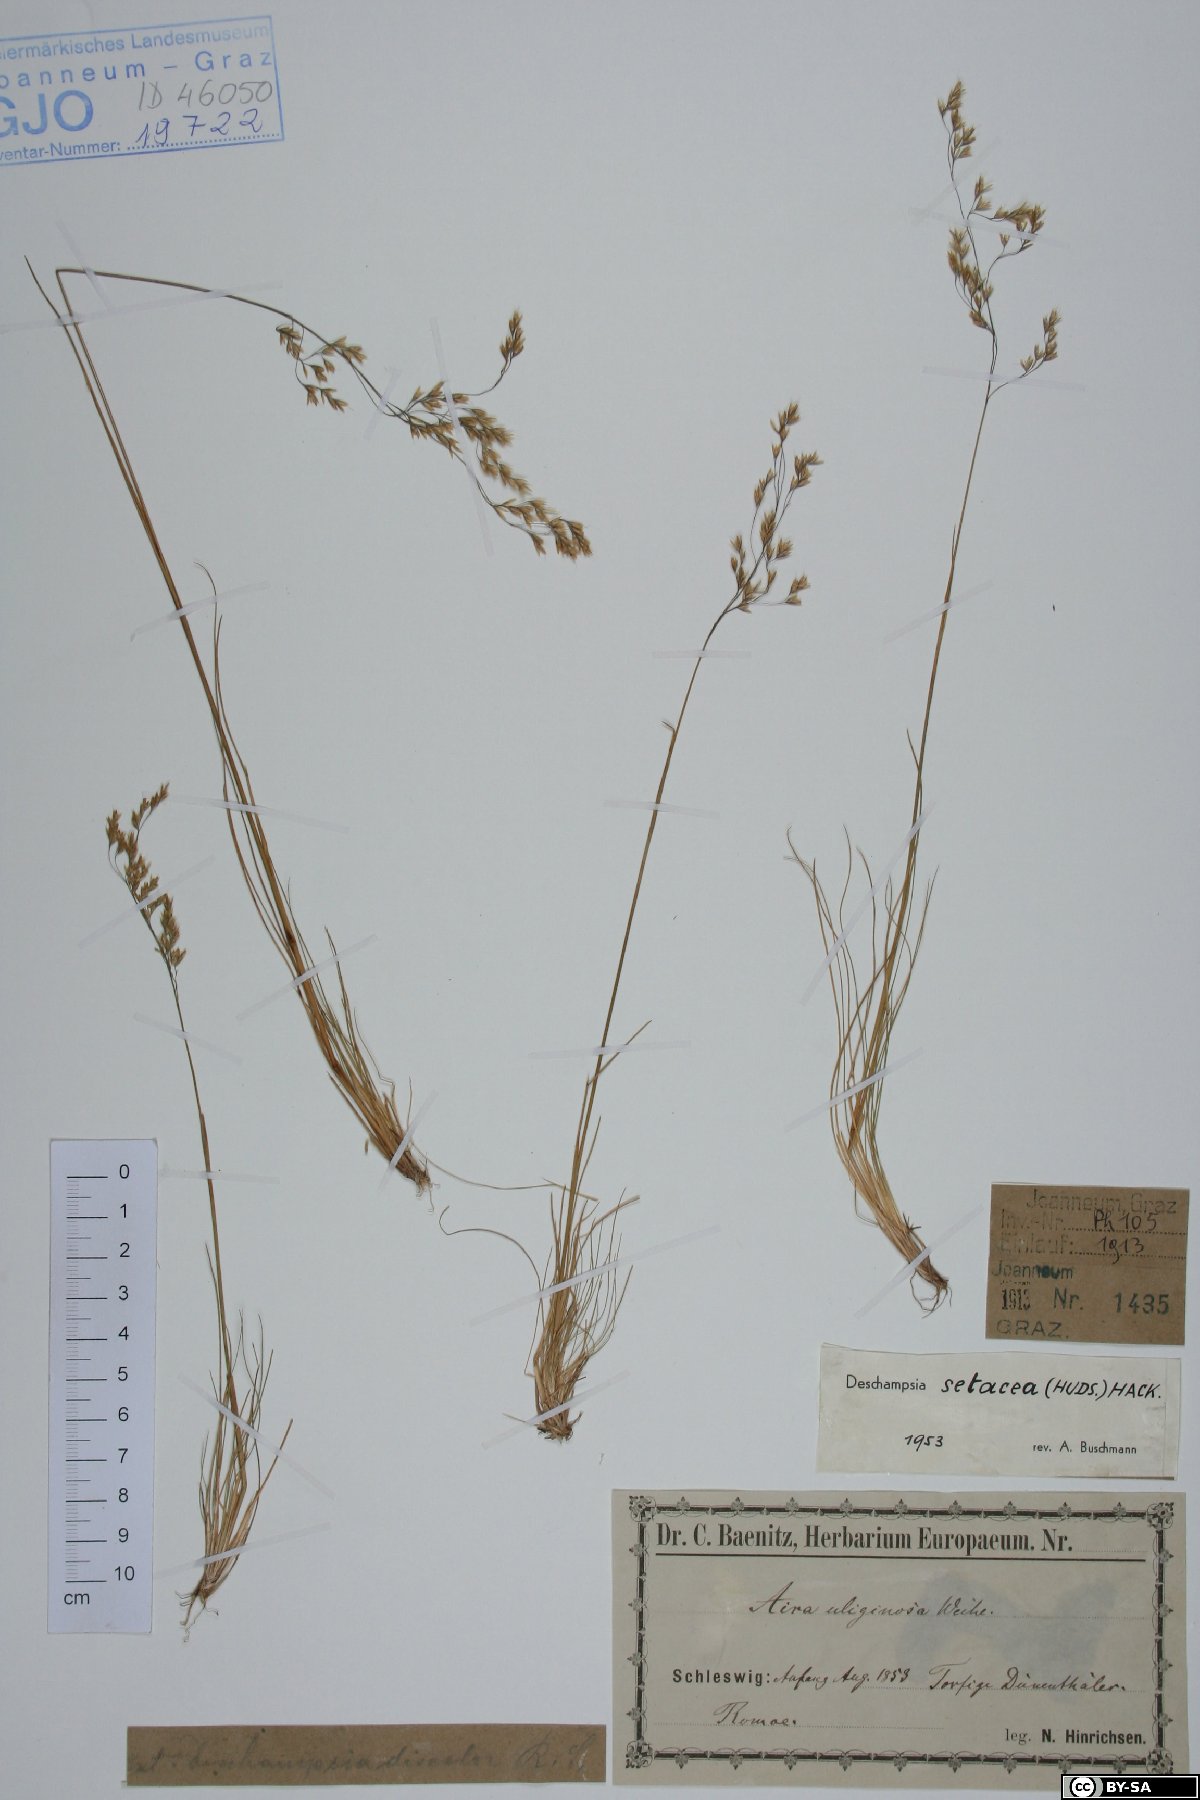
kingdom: Plantae
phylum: Tracheophyta
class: Liliopsida
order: Poales
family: Poaceae
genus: Deschampsia
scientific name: Deschampsia setacea
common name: Bog hair-grass
